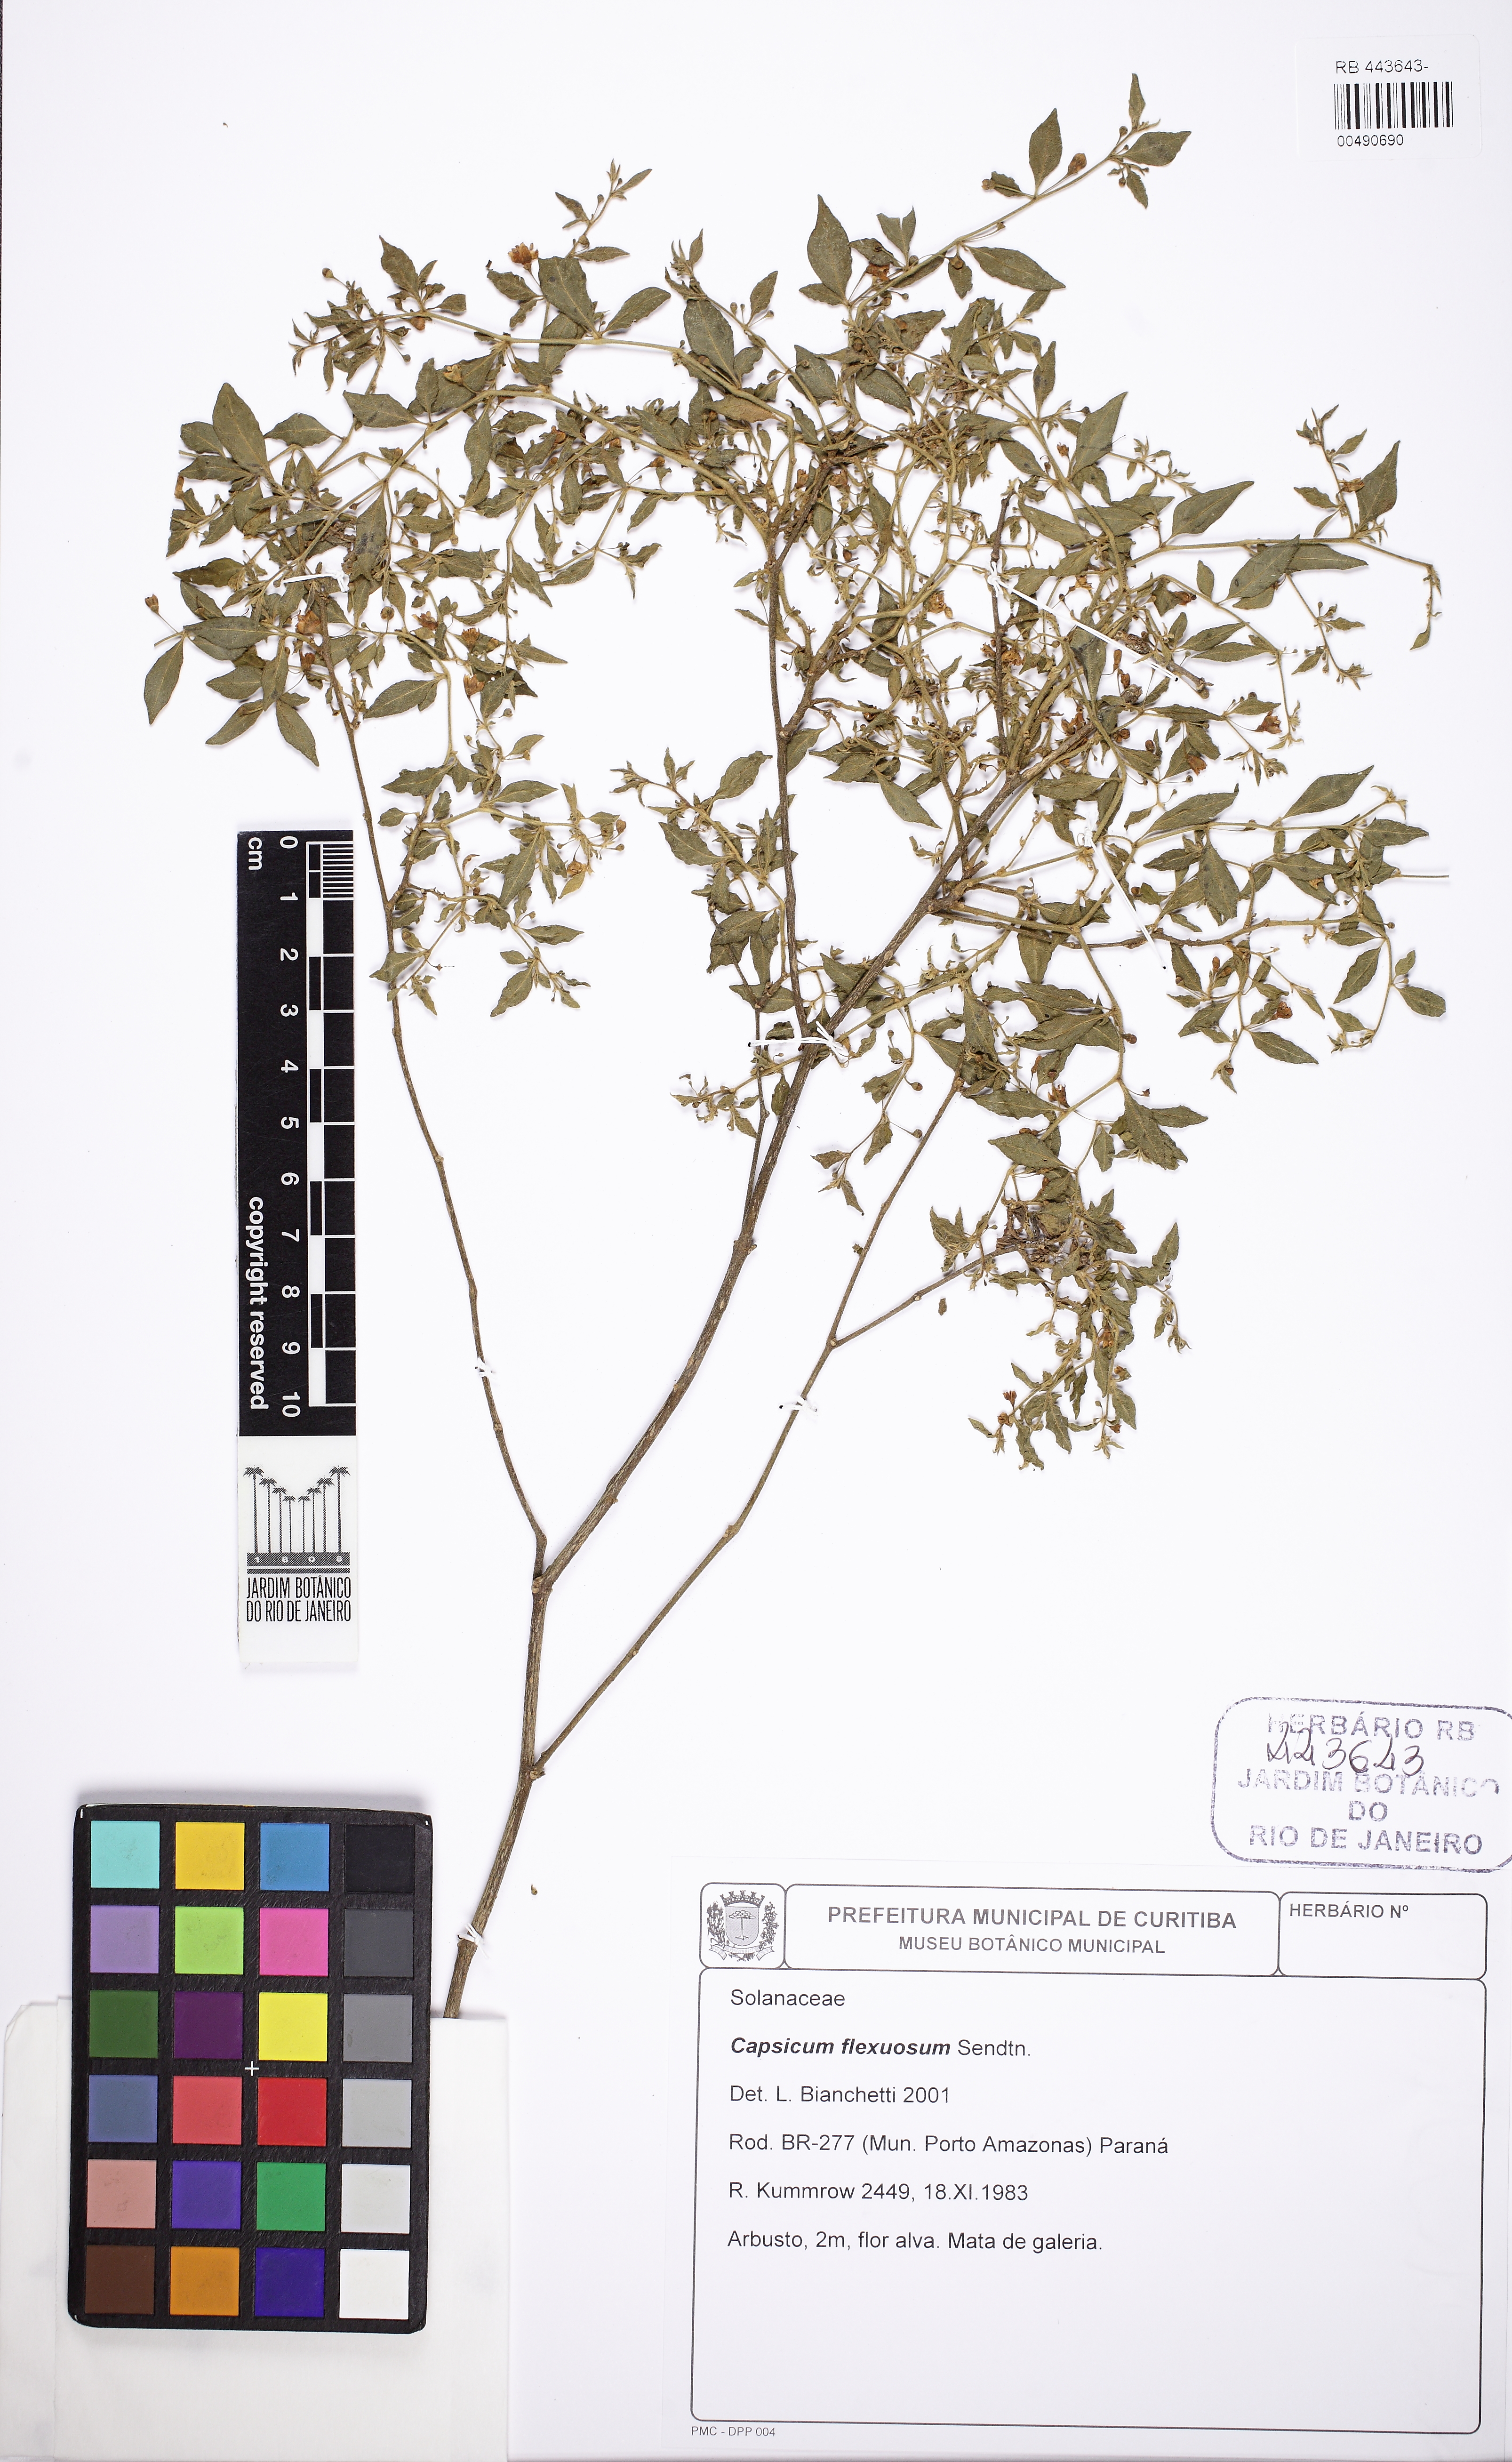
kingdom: Plantae
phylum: Tracheophyta
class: Magnoliopsida
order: Solanales
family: Solanaceae
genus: Capsicum
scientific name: Capsicum flexuosum
